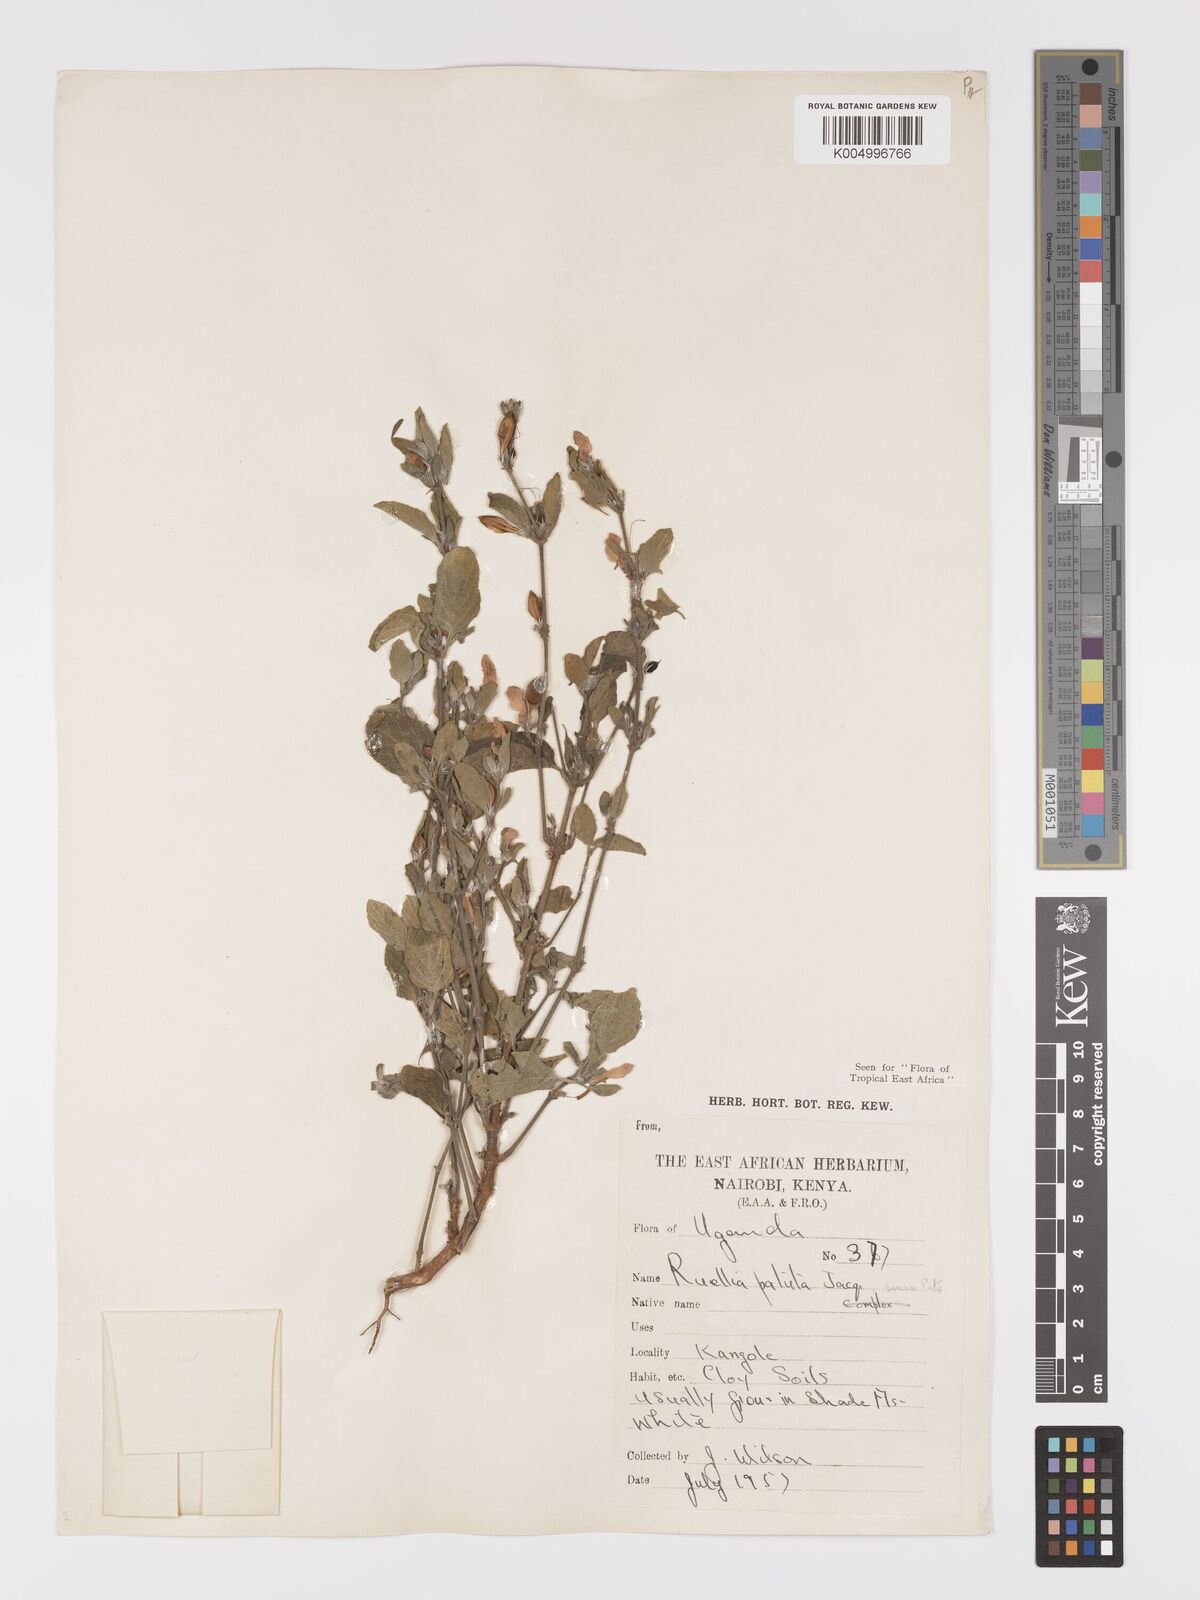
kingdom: Plantae
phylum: Tracheophyta
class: Magnoliopsida
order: Lamiales
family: Acanthaceae
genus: Ruellia
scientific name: Ruellia patula
